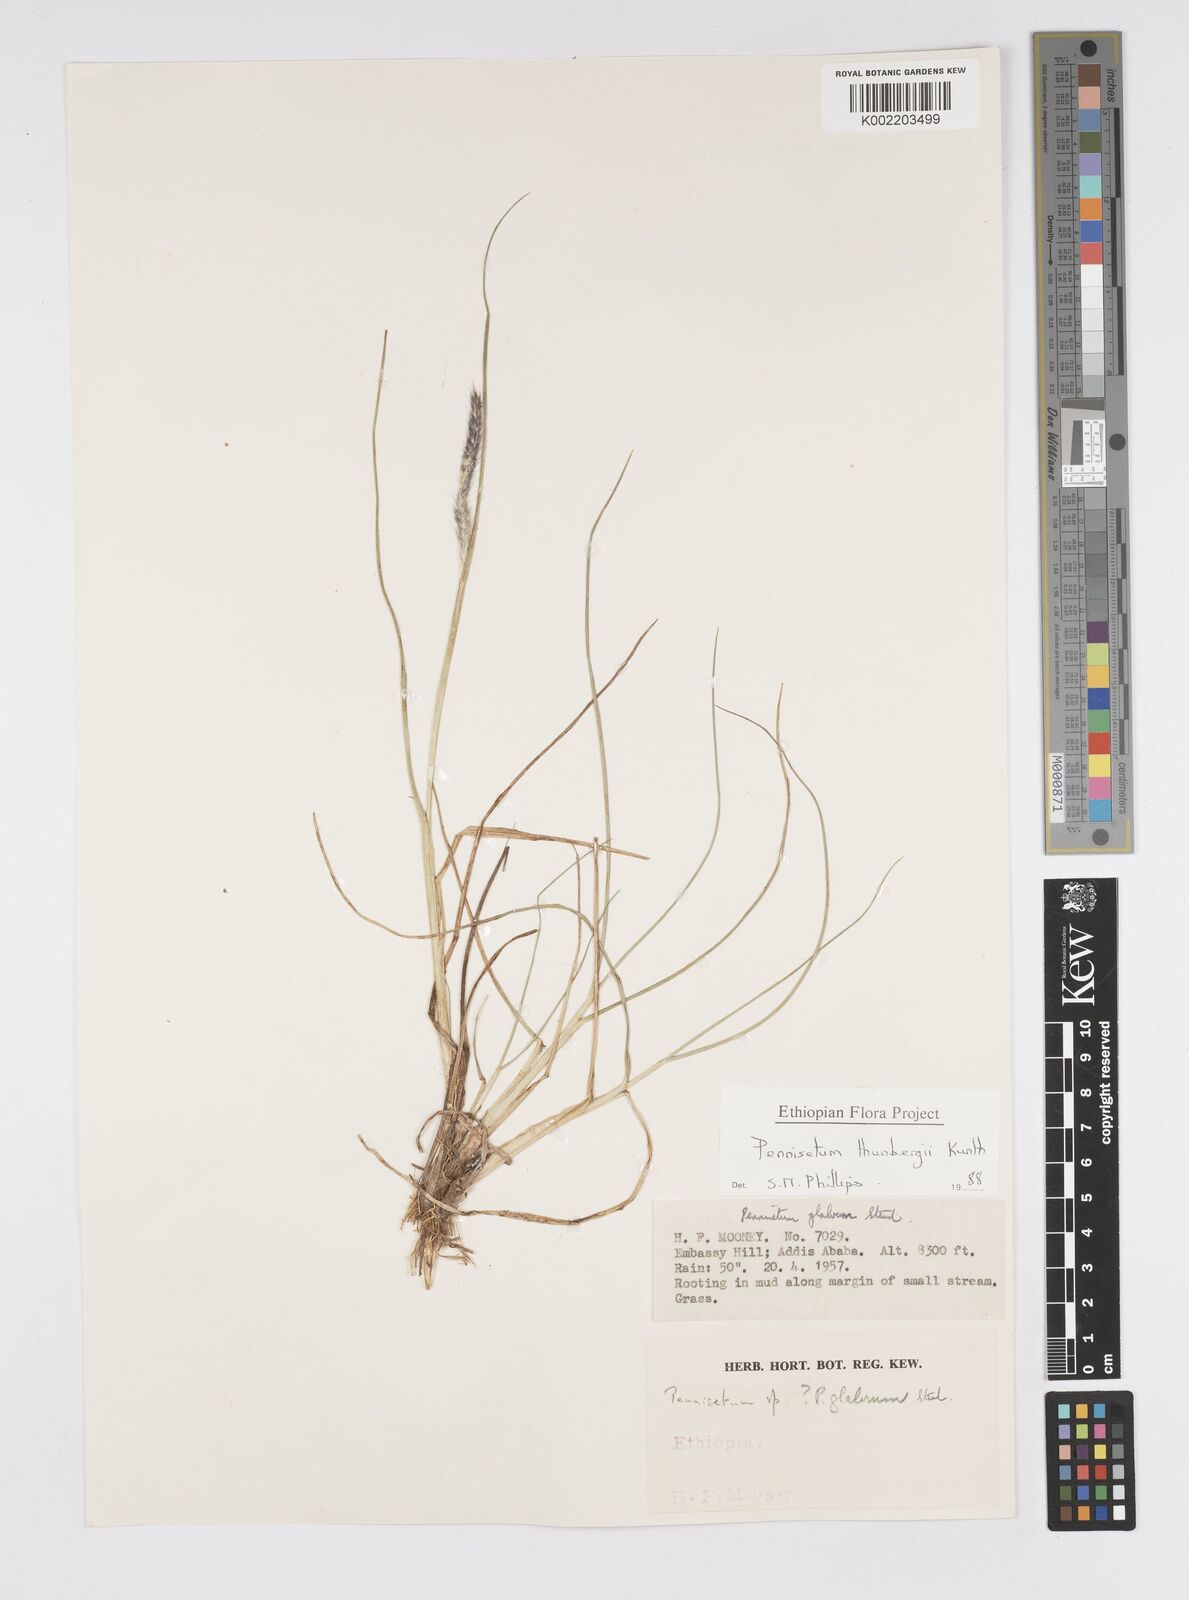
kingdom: Plantae
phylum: Tracheophyta
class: Liliopsida
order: Poales
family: Poaceae
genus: Cenchrus
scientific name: Cenchrus geniculatus
